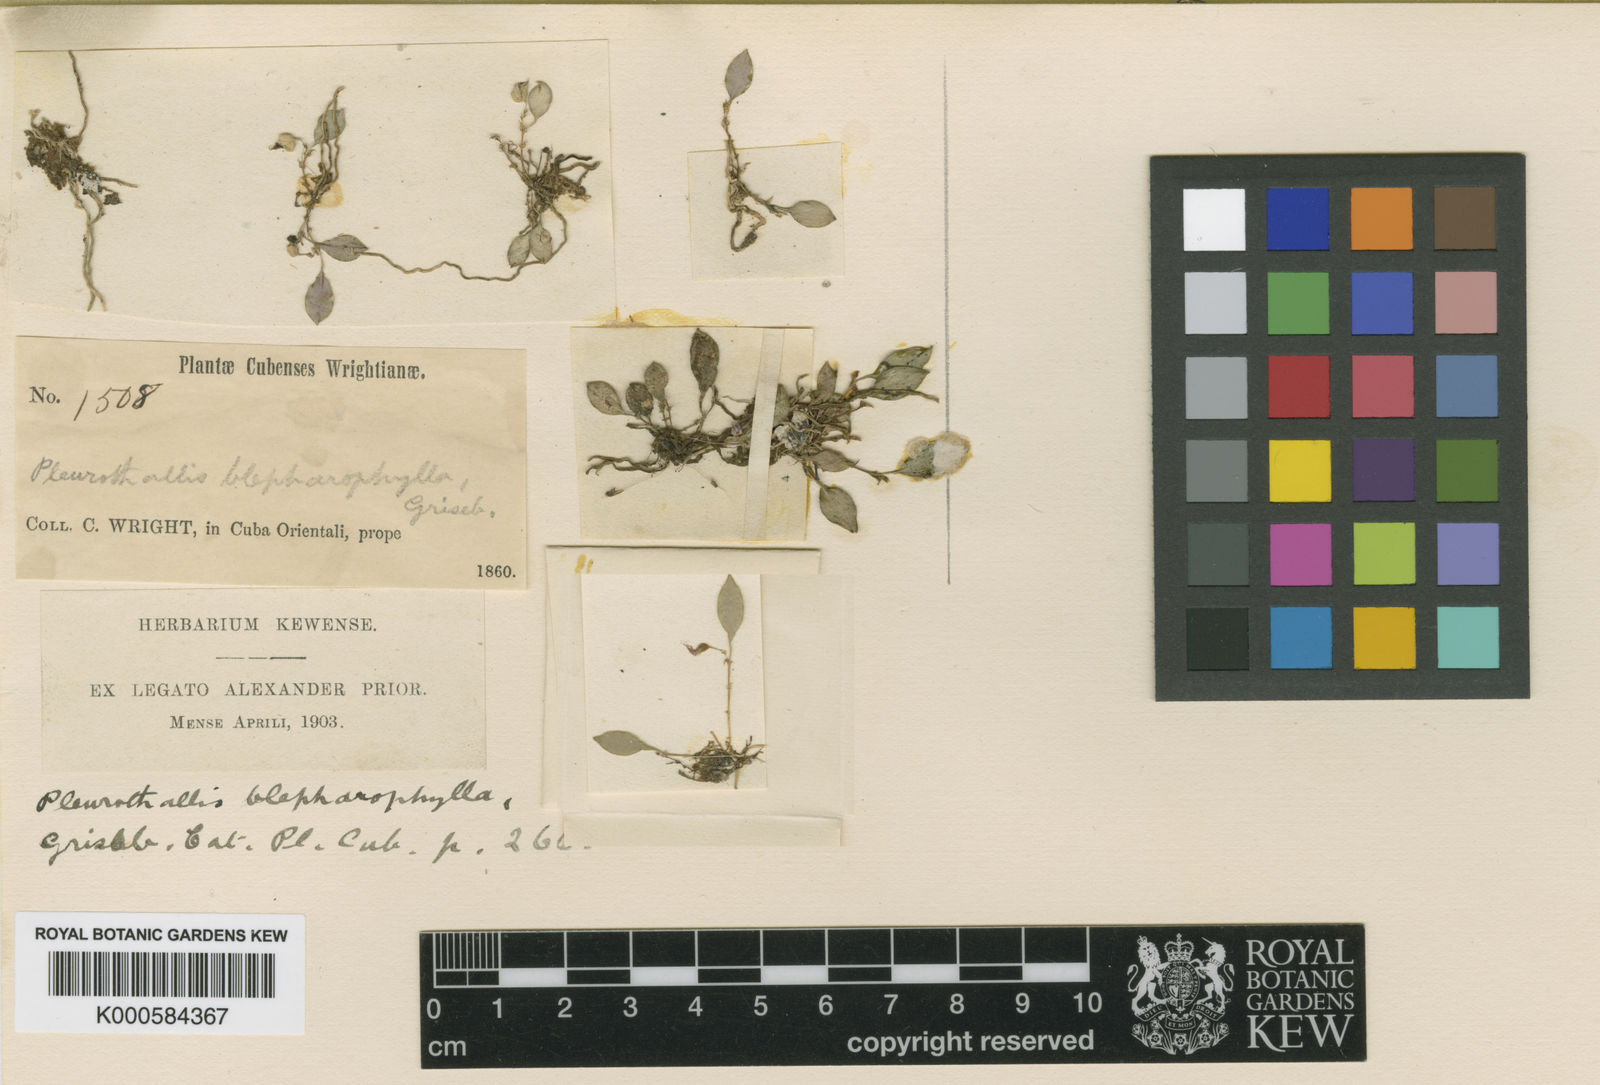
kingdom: Plantae
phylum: Tracheophyta
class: Liliopsida
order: Asparagales
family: Orchidaceae
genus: Lepanthes
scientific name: Lepanthes blepharophylla
